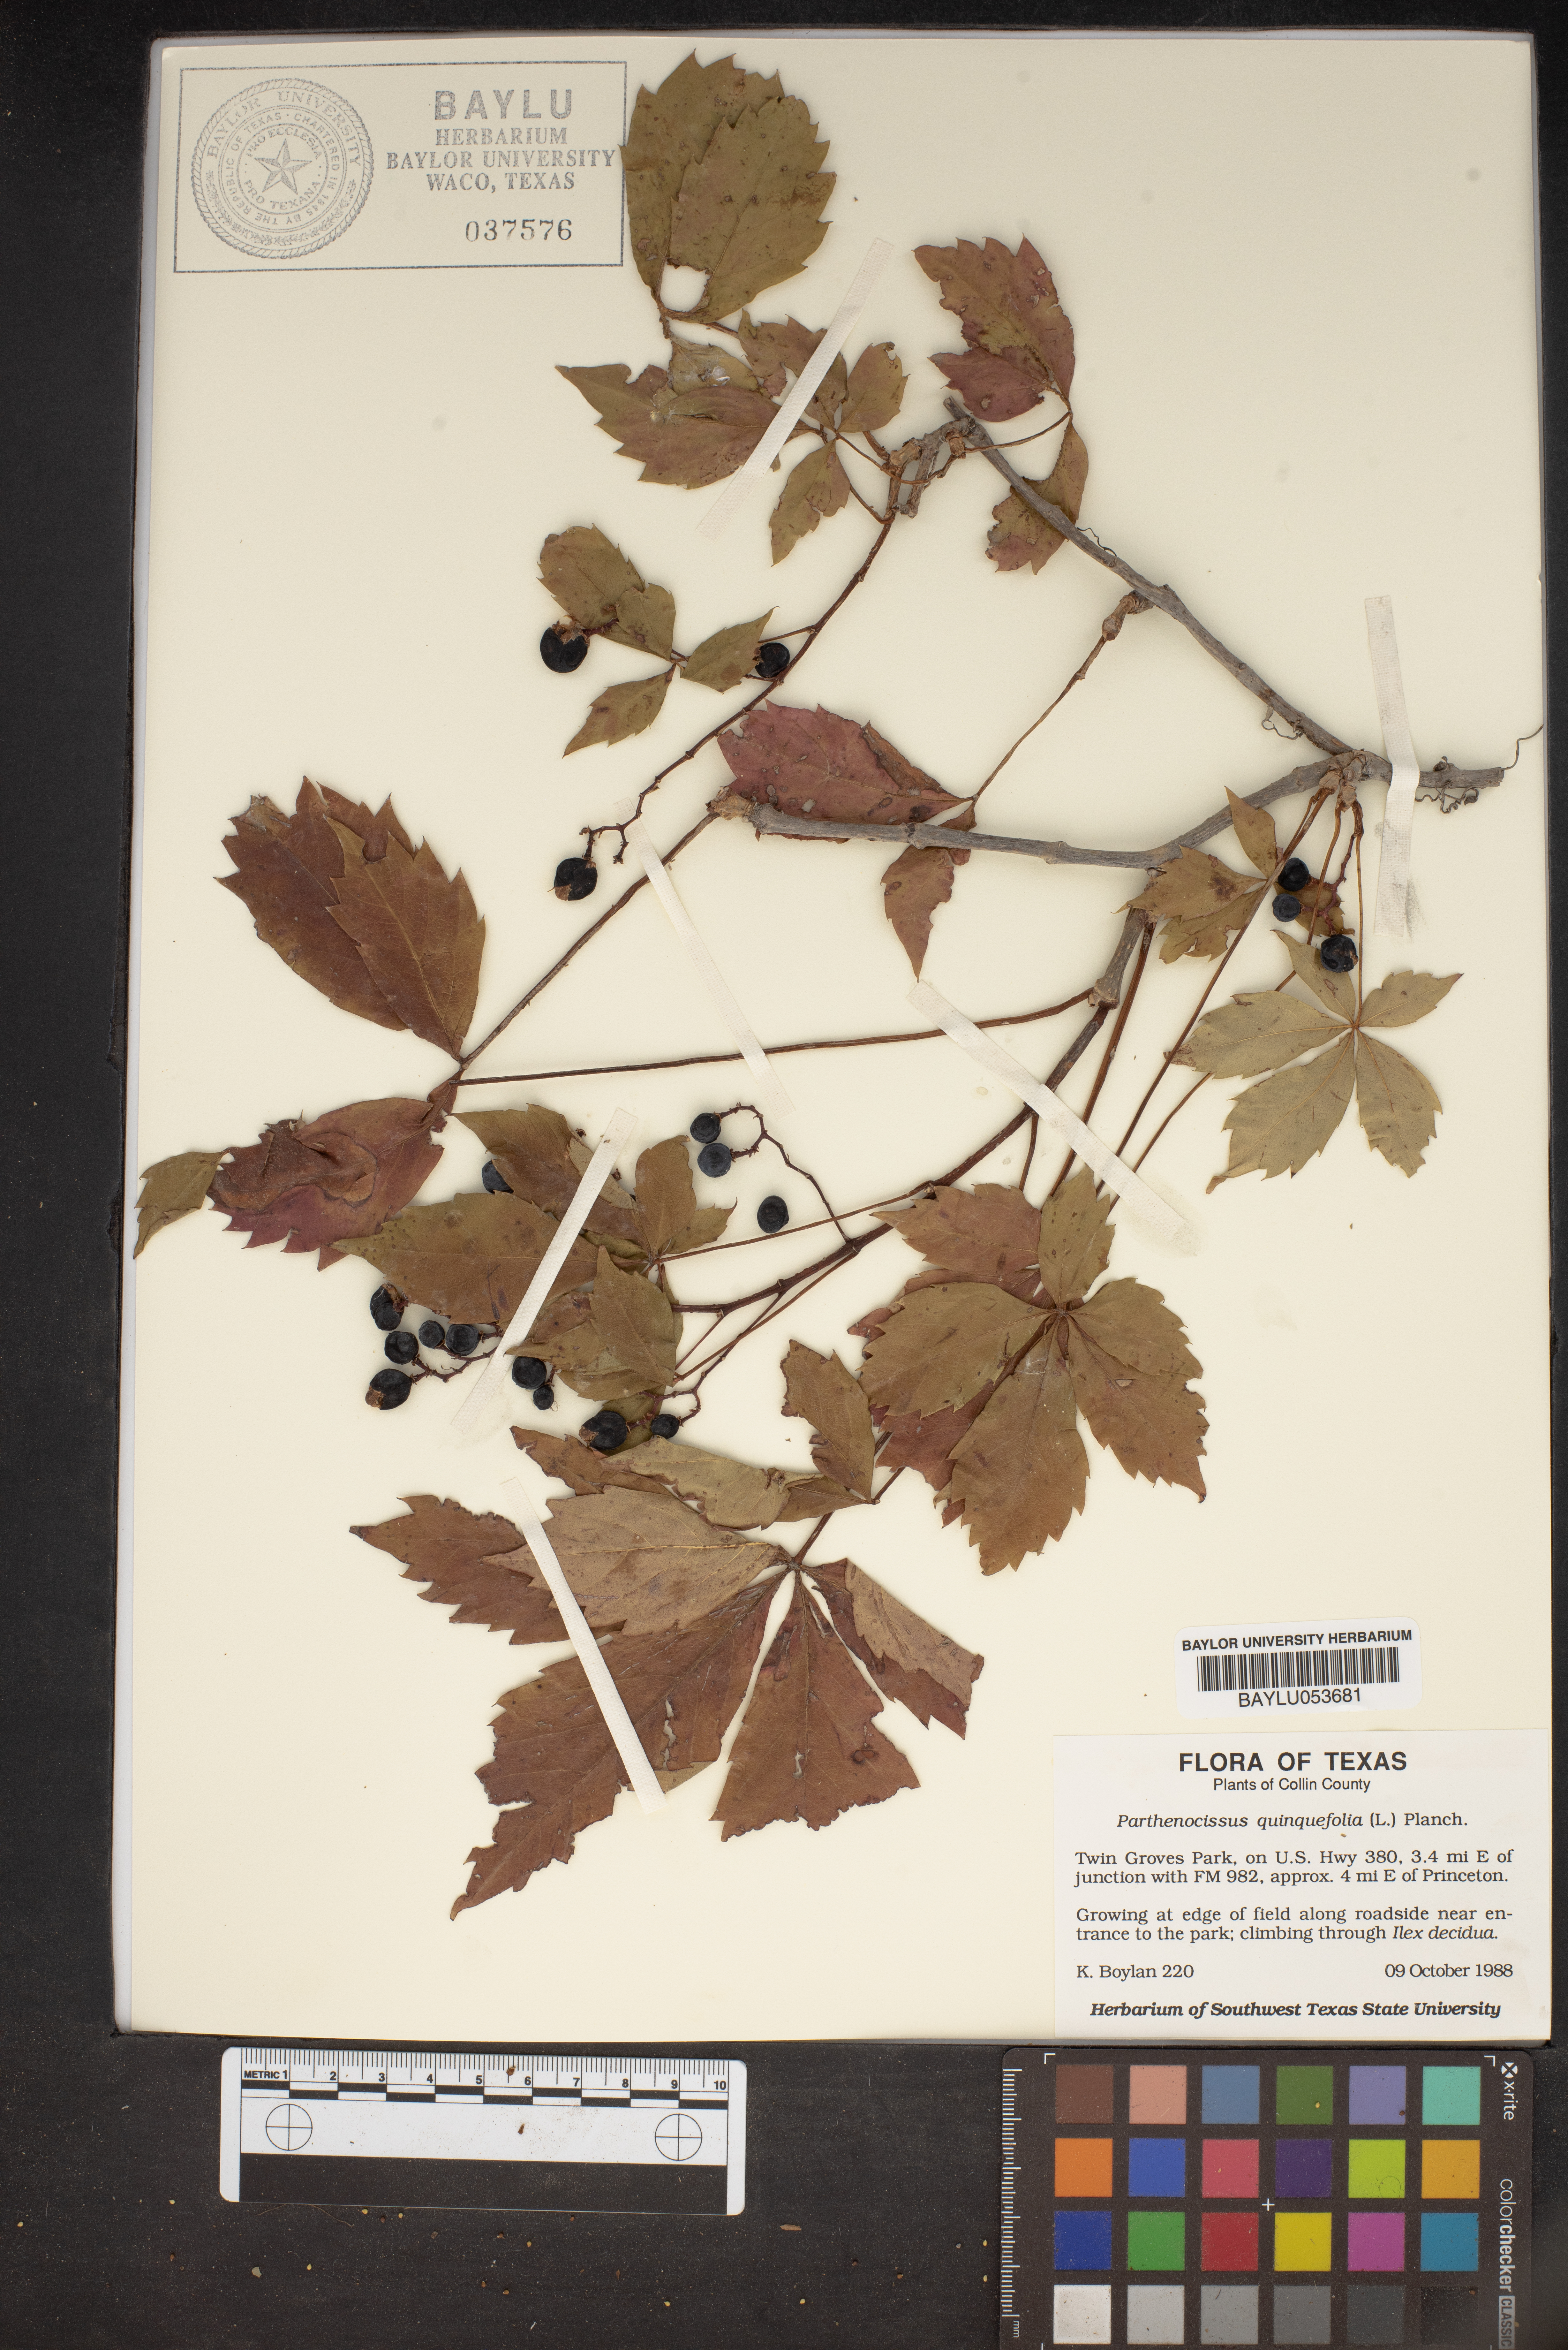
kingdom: Plantae
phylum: Tracheophyta
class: Magnoliopsida
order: Vitales
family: Vitaceae
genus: Parthenocissus
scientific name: Parthenocissus quinquefolia
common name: Virginia-creeper
